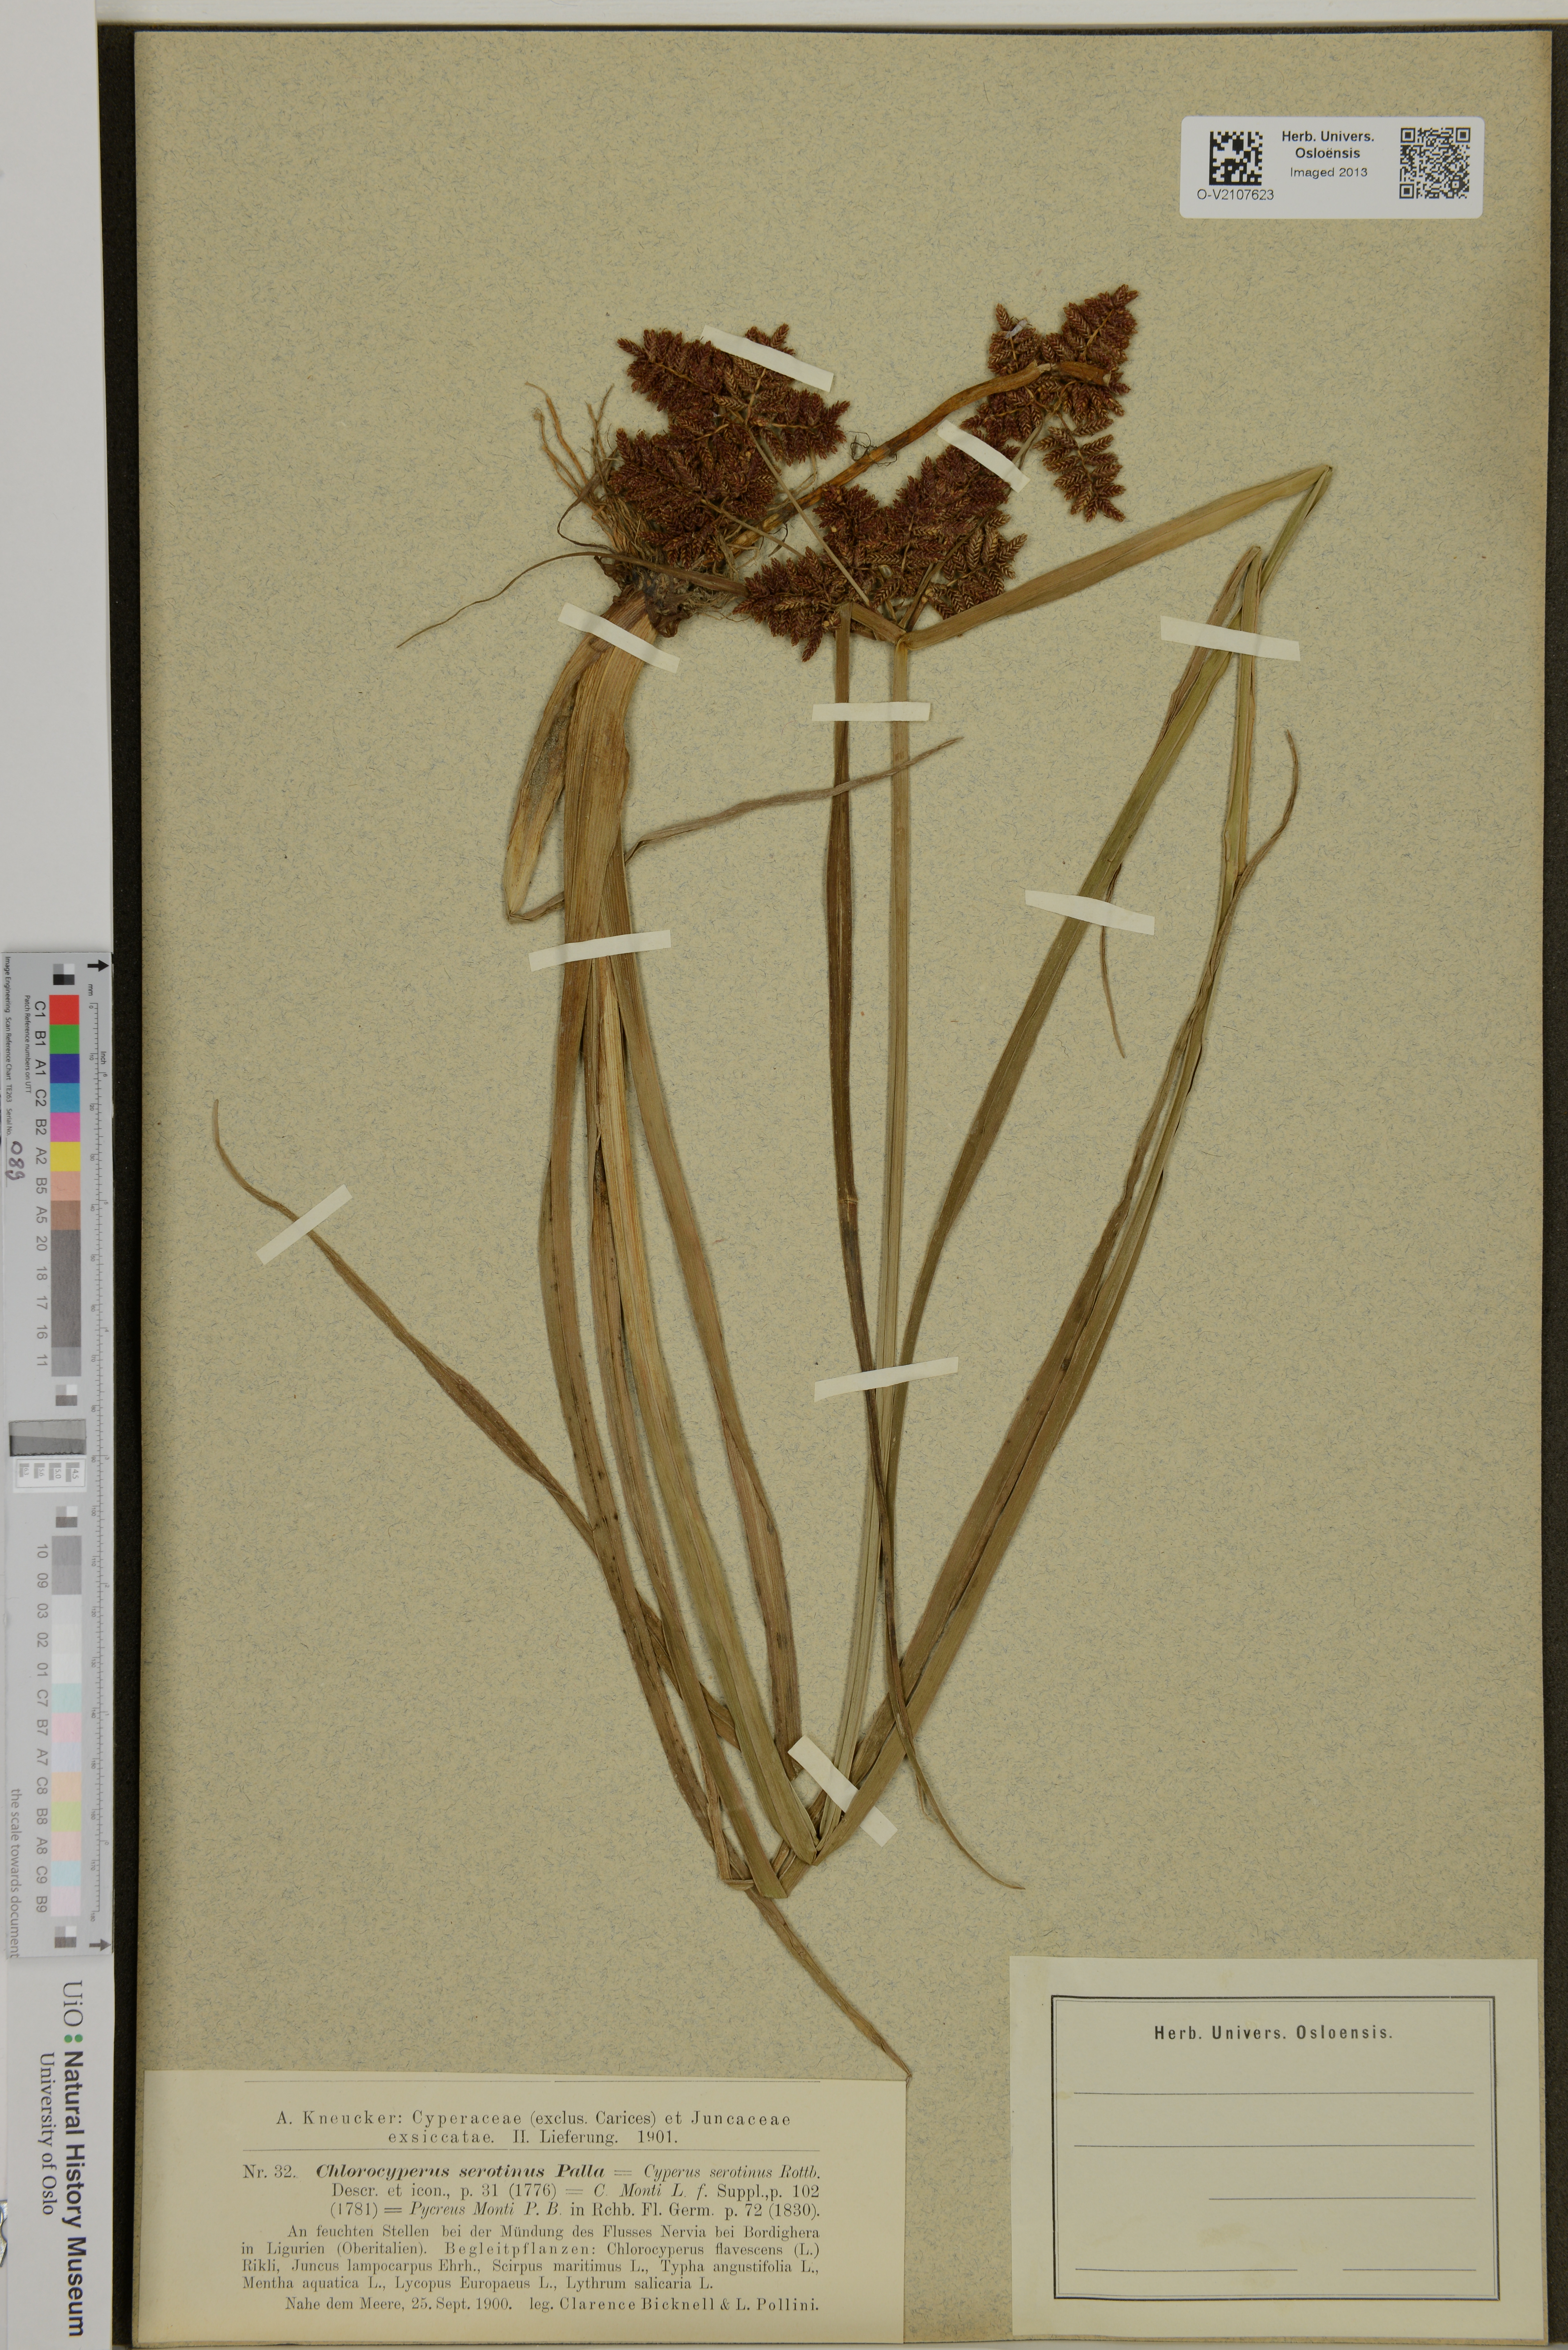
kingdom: Plantae
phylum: Tracheophyta
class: Liliopsida
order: Poales
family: Cyperaceae
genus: Cyperus
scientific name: Cyperus serotinus
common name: Tidalmarsh flatsedge
